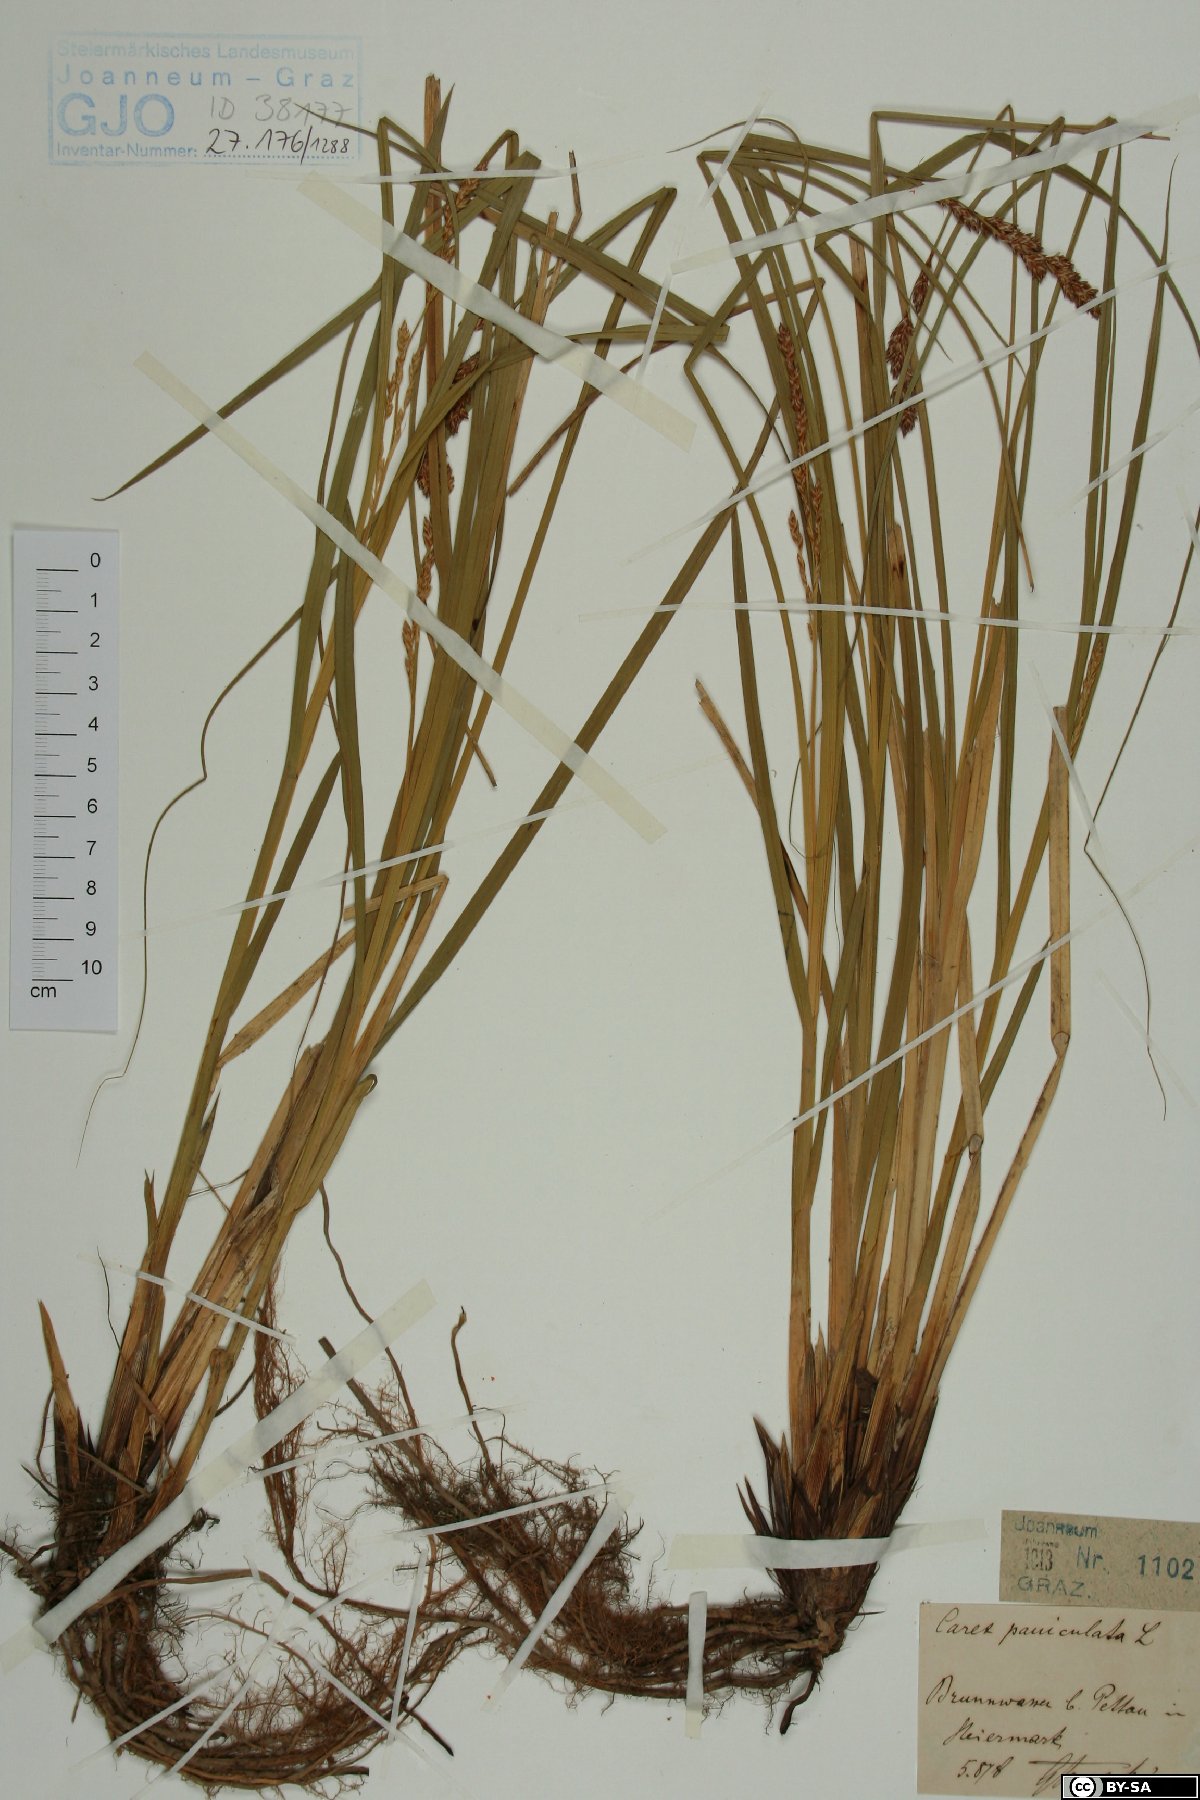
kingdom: Plantae
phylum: Tracheophyta
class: Liliopsida
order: Poales
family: Cyperaceae
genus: Carex
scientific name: Carex paniculata
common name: Greater tussock-sedge
